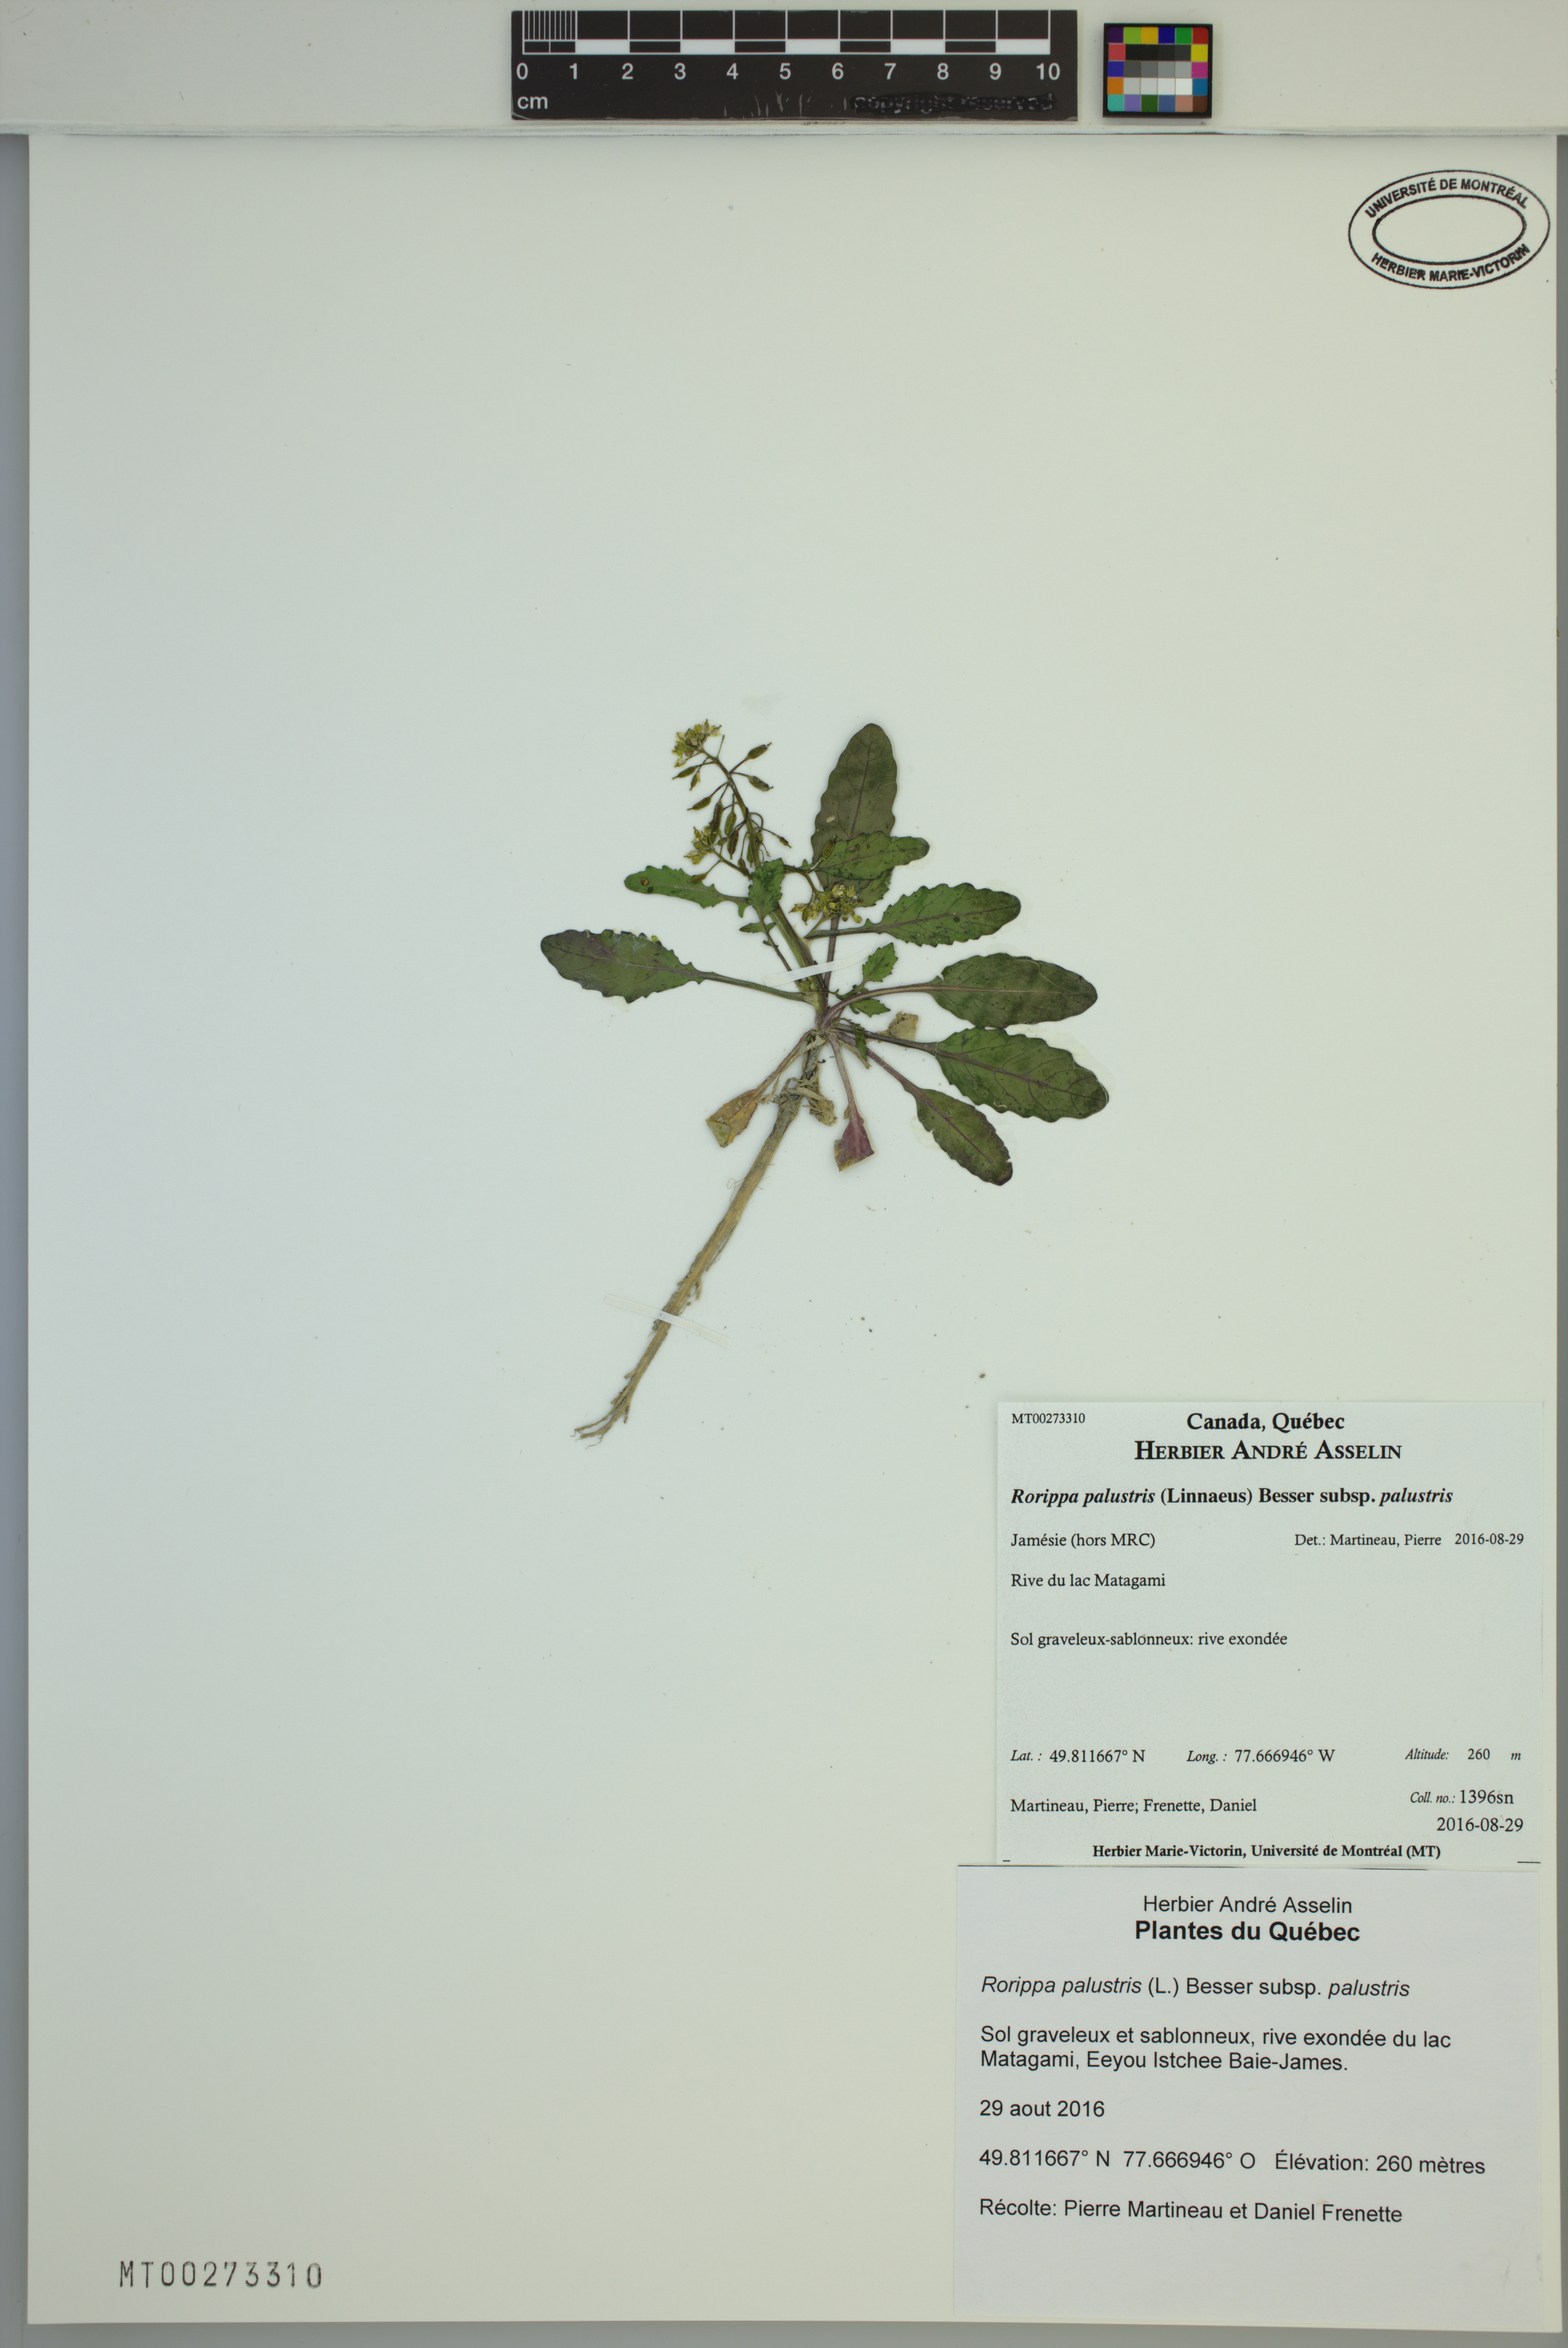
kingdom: Plantae
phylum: Tracheophyta
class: Magnoliopsida
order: Brassicales
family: Brassicaceae
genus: Rorippa
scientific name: Rorippa palustris
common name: Marsh yellow-cress
